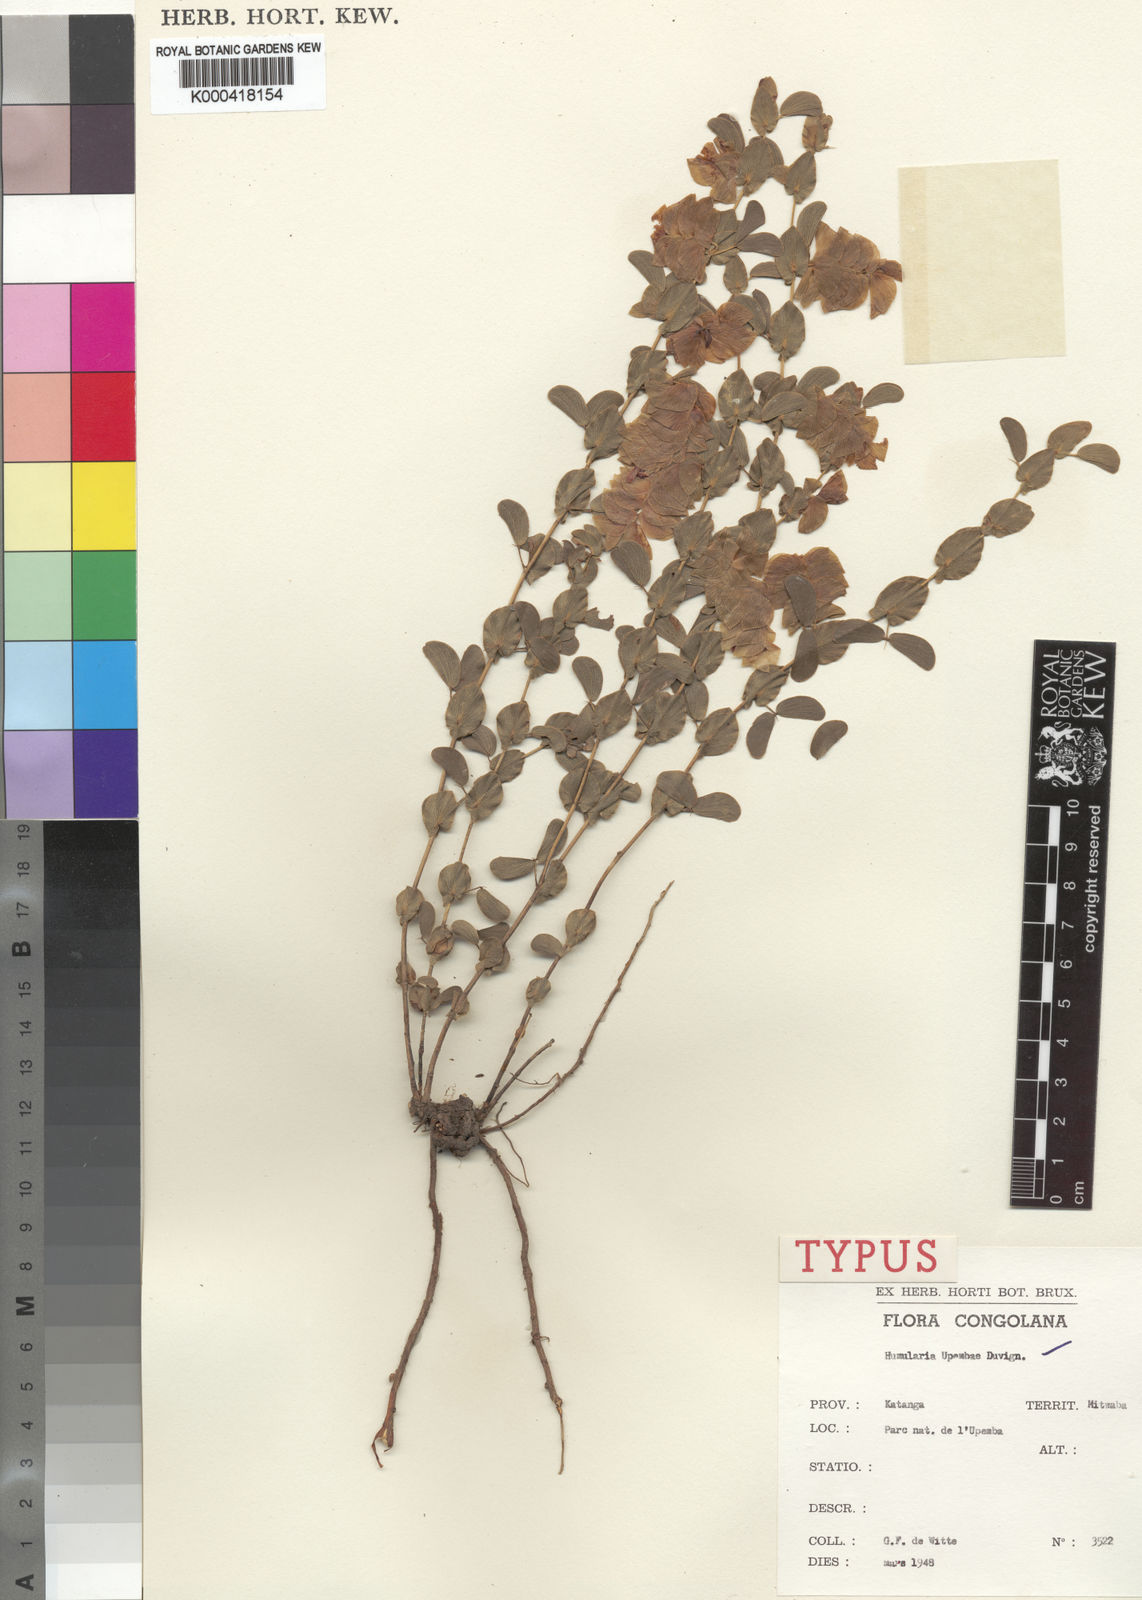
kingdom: Plantae
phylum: Tracheophyta
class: Magnoliopsida
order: Fabales
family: Fabaceae
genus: Humularia
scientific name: Humularia upembae
